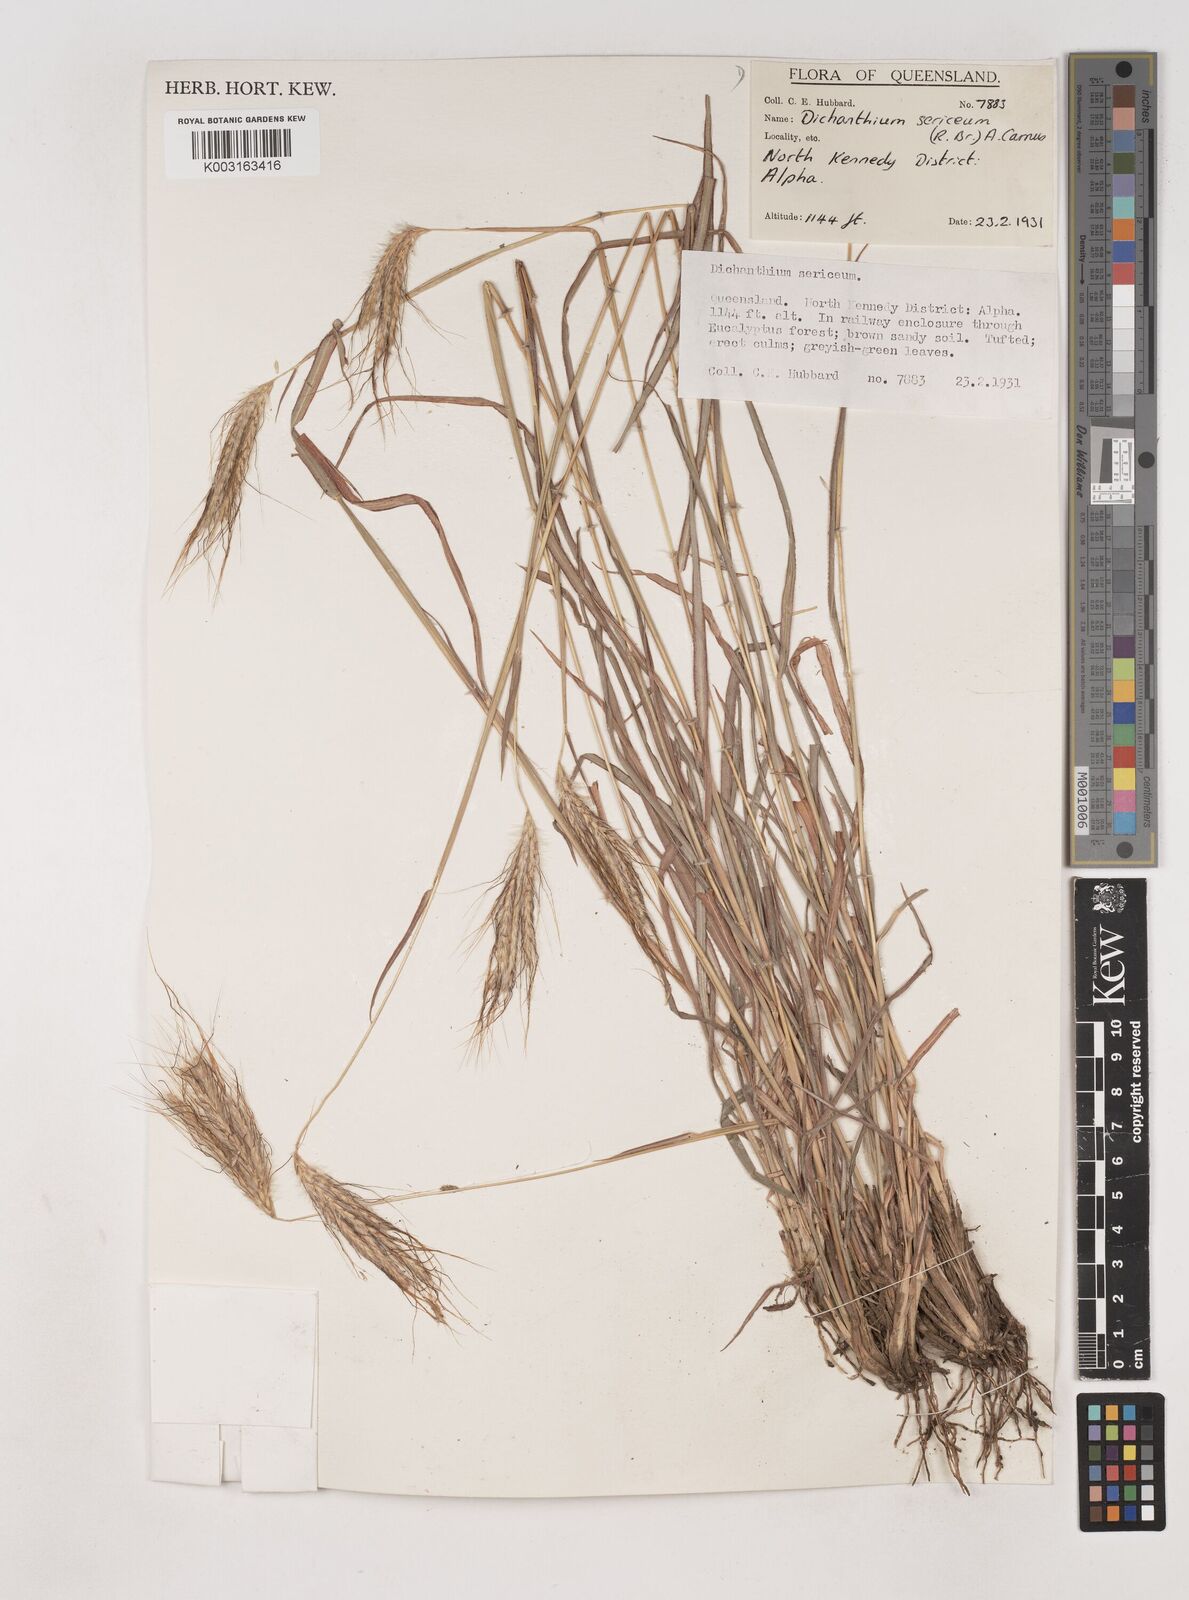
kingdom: Plantae
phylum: Tracheophyta
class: Liliopsida
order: Poales
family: Poaceae
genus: Dichanthium
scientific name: Dichanthium sericeum
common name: Silky bluestem
